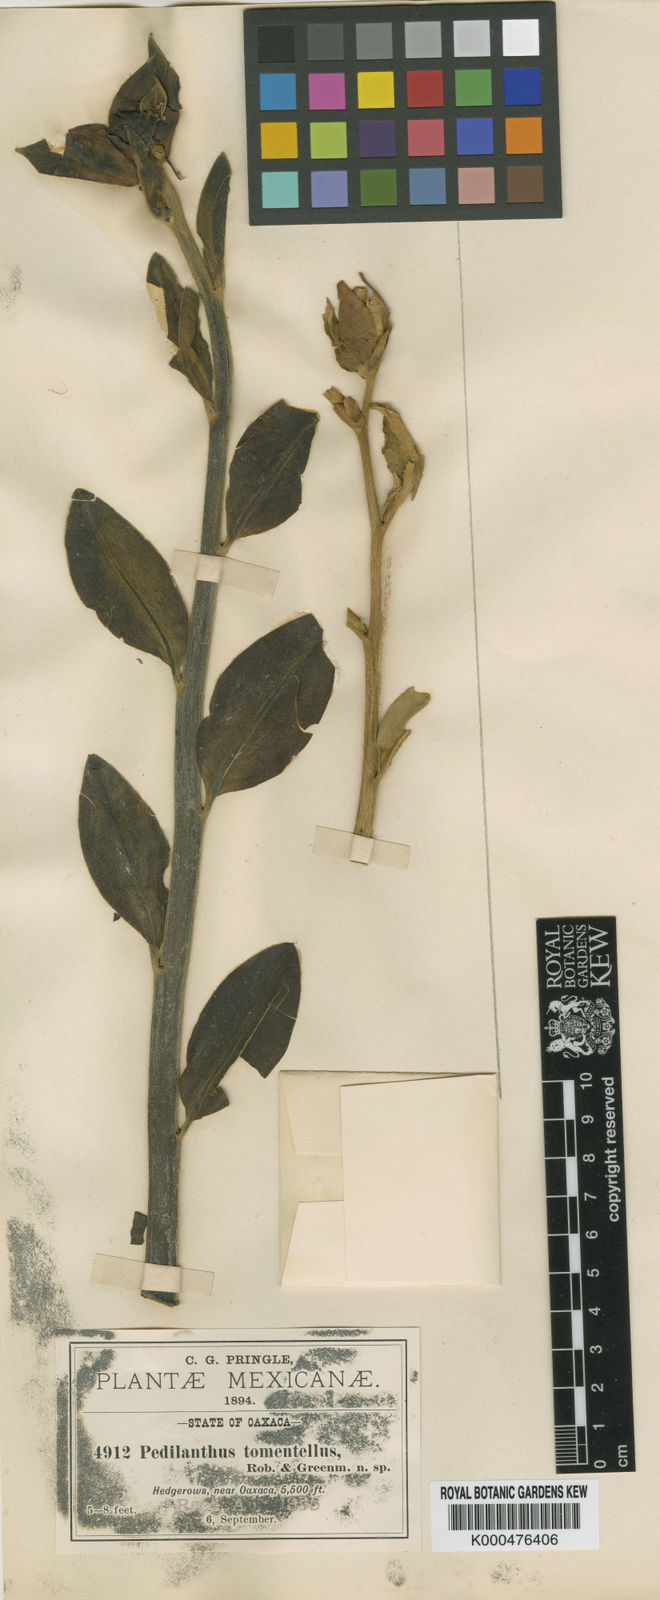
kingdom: Plantae
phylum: Tracheophyta
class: Magnoliopsida
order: Malpighiales
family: Euphorbiaceae
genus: Euphorbia
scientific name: Euphorbia cyri
